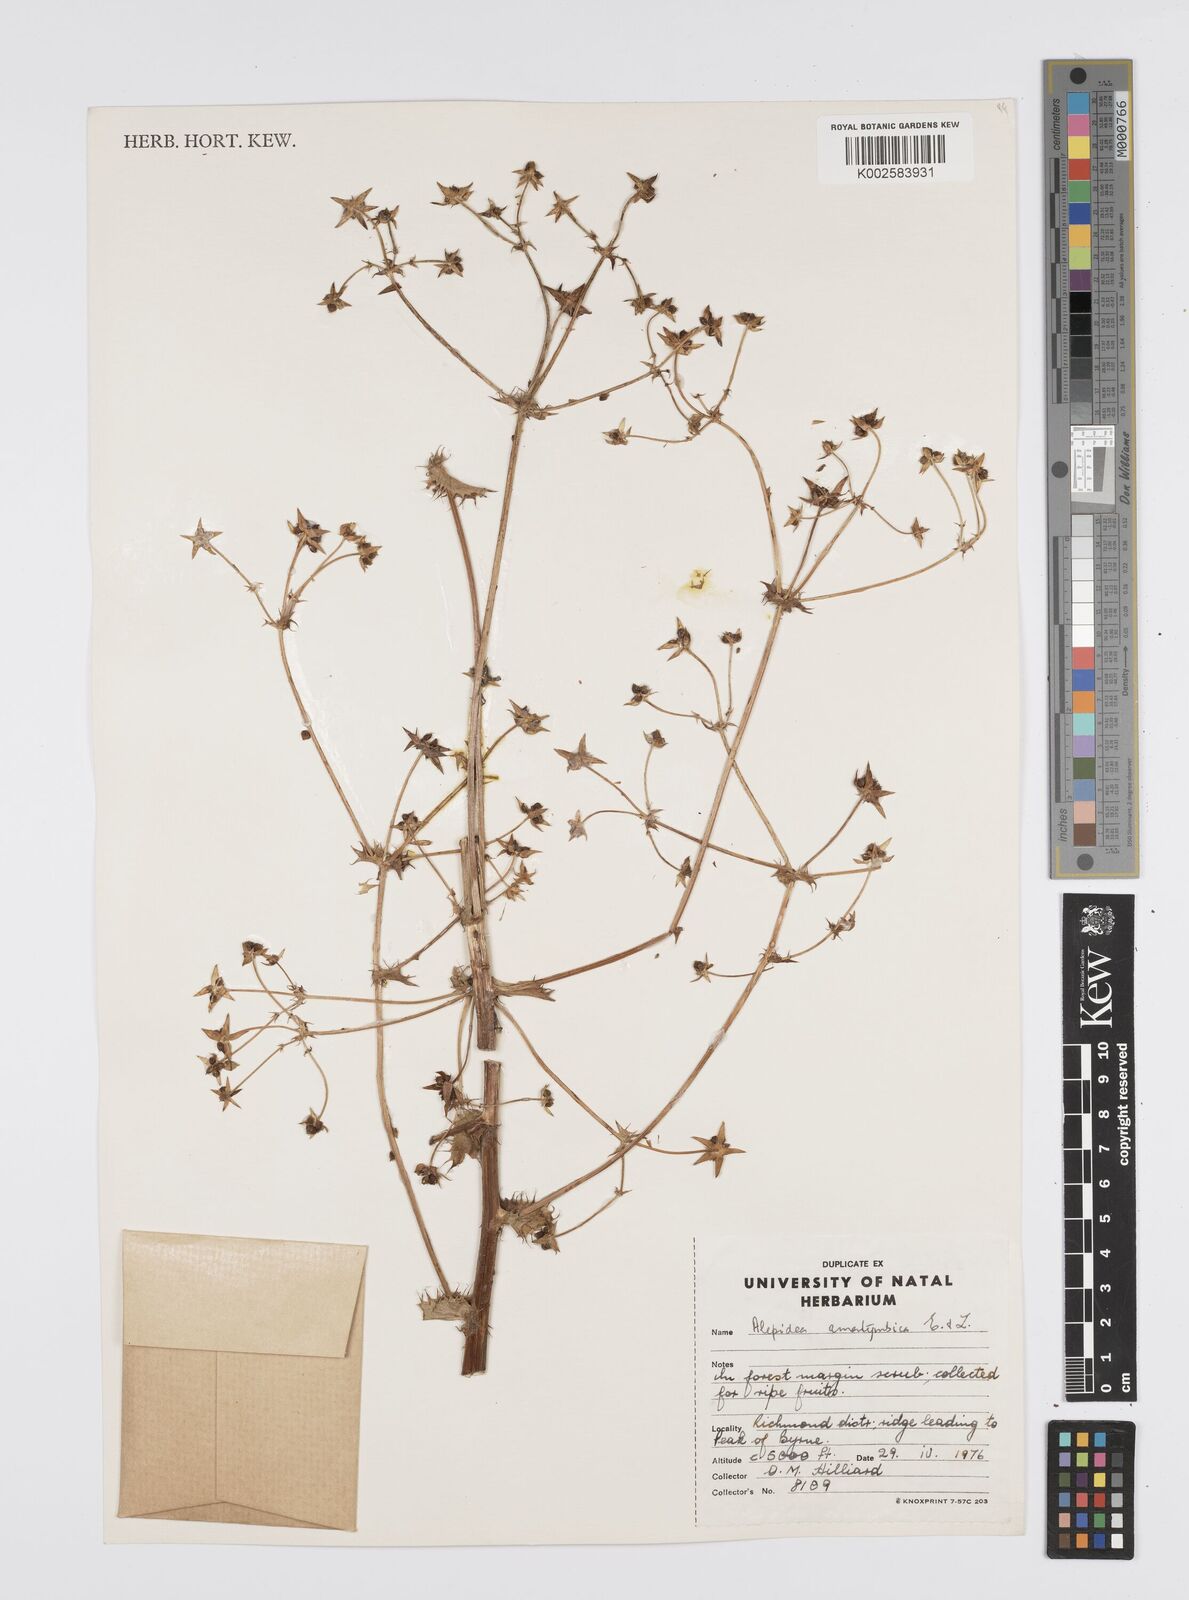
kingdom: Plantae
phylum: Tracheophyta
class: Magnoliopsida
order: Apiales
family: Apiaceae
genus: Alepidea
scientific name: Alepidea amatymbica
